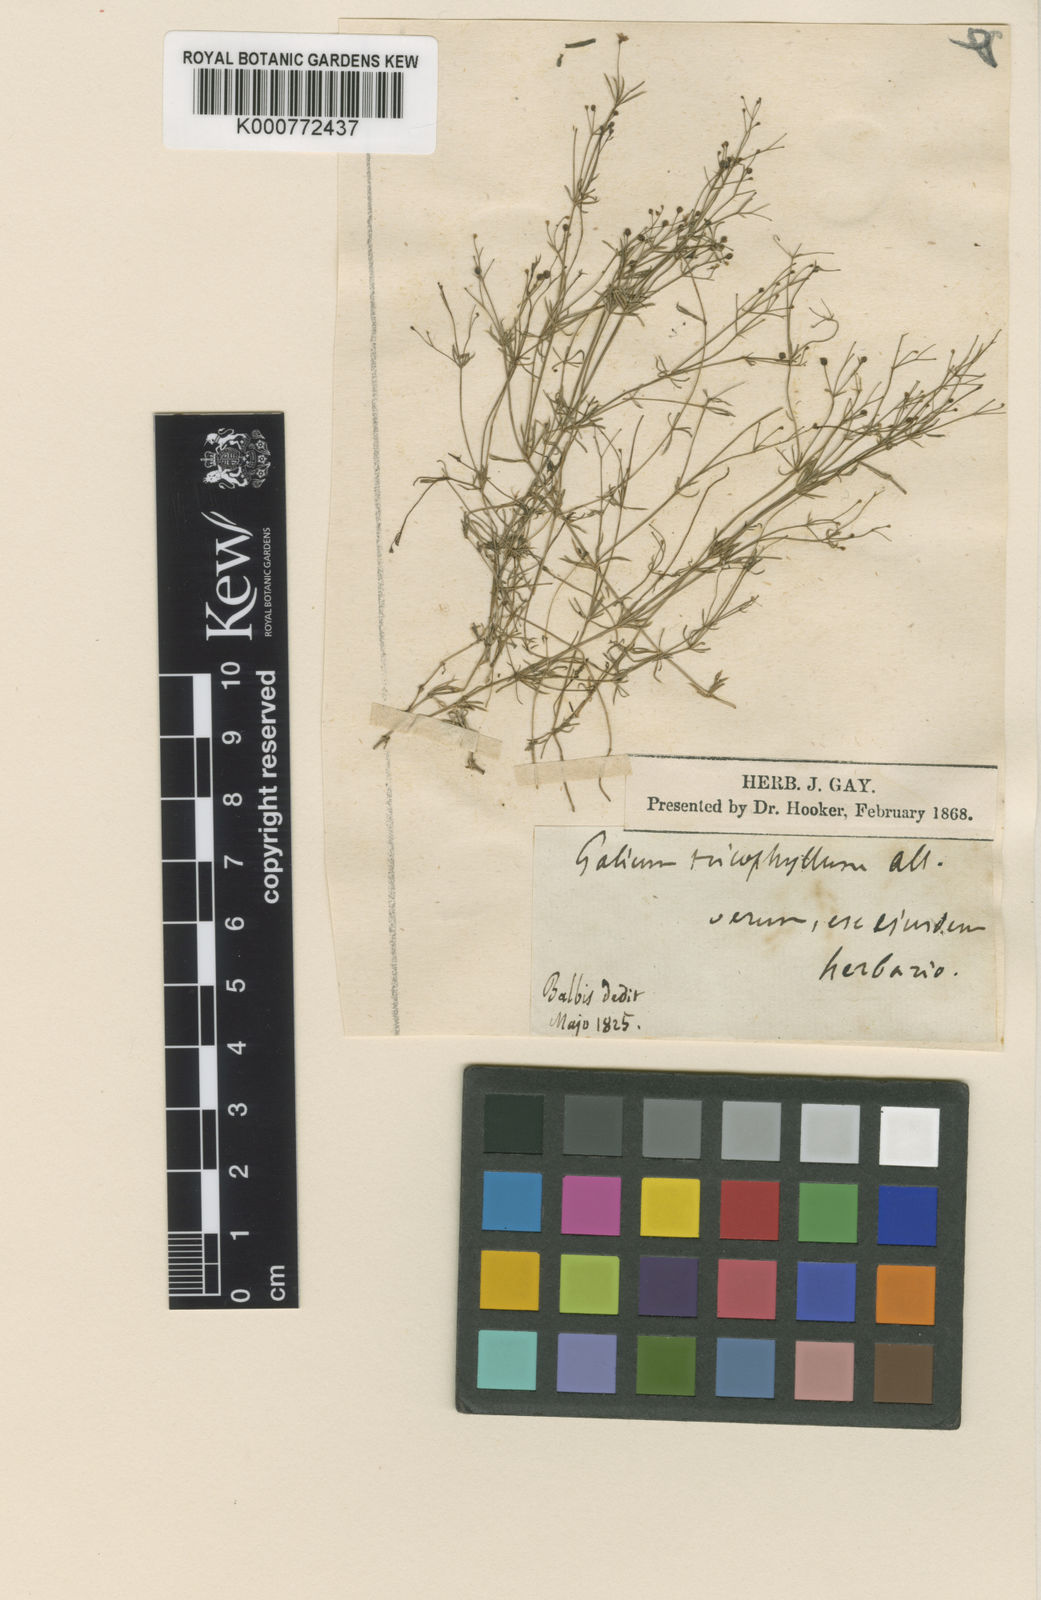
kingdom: Plantae
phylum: Tracheophyta
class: Magnoliopsida
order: Gentianales
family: Rubiaceae
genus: Galium
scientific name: Galium pumilum
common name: Slender bedstraw
